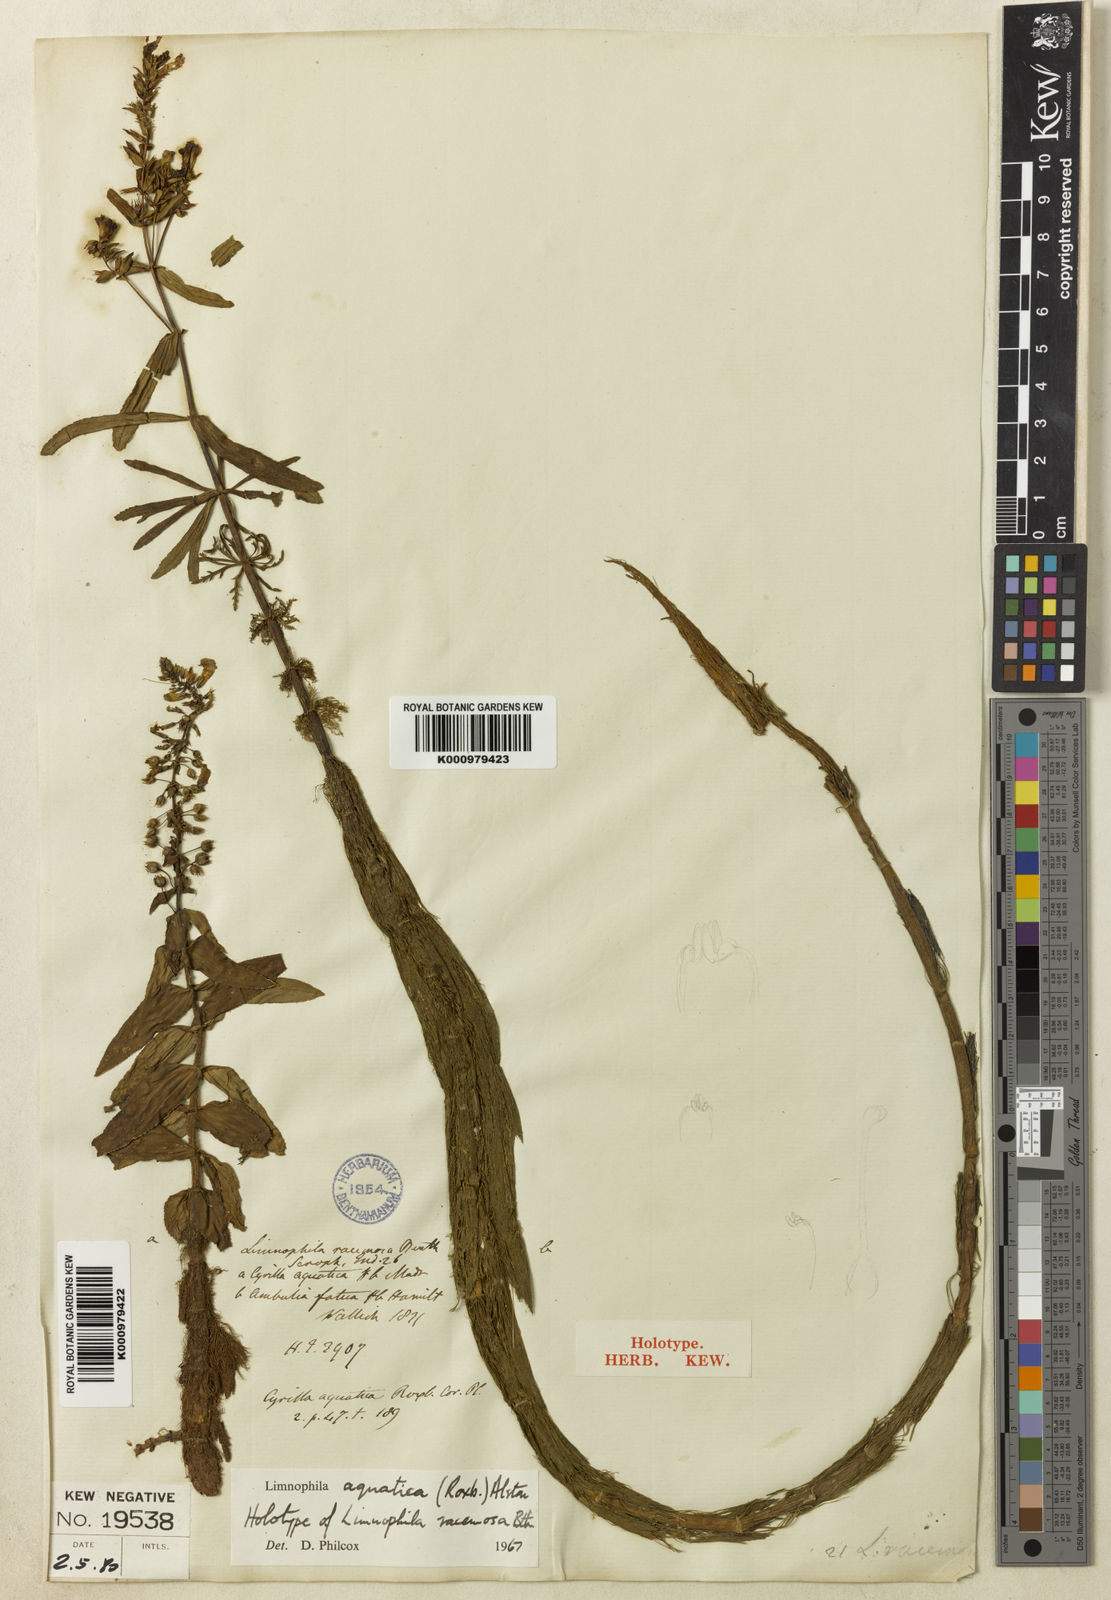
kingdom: Plantae
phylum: Tracheophyta
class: Magnoliopsida
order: Lamiales
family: Plantaginaceae
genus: Limnophila
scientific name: Limnophila aquatica
